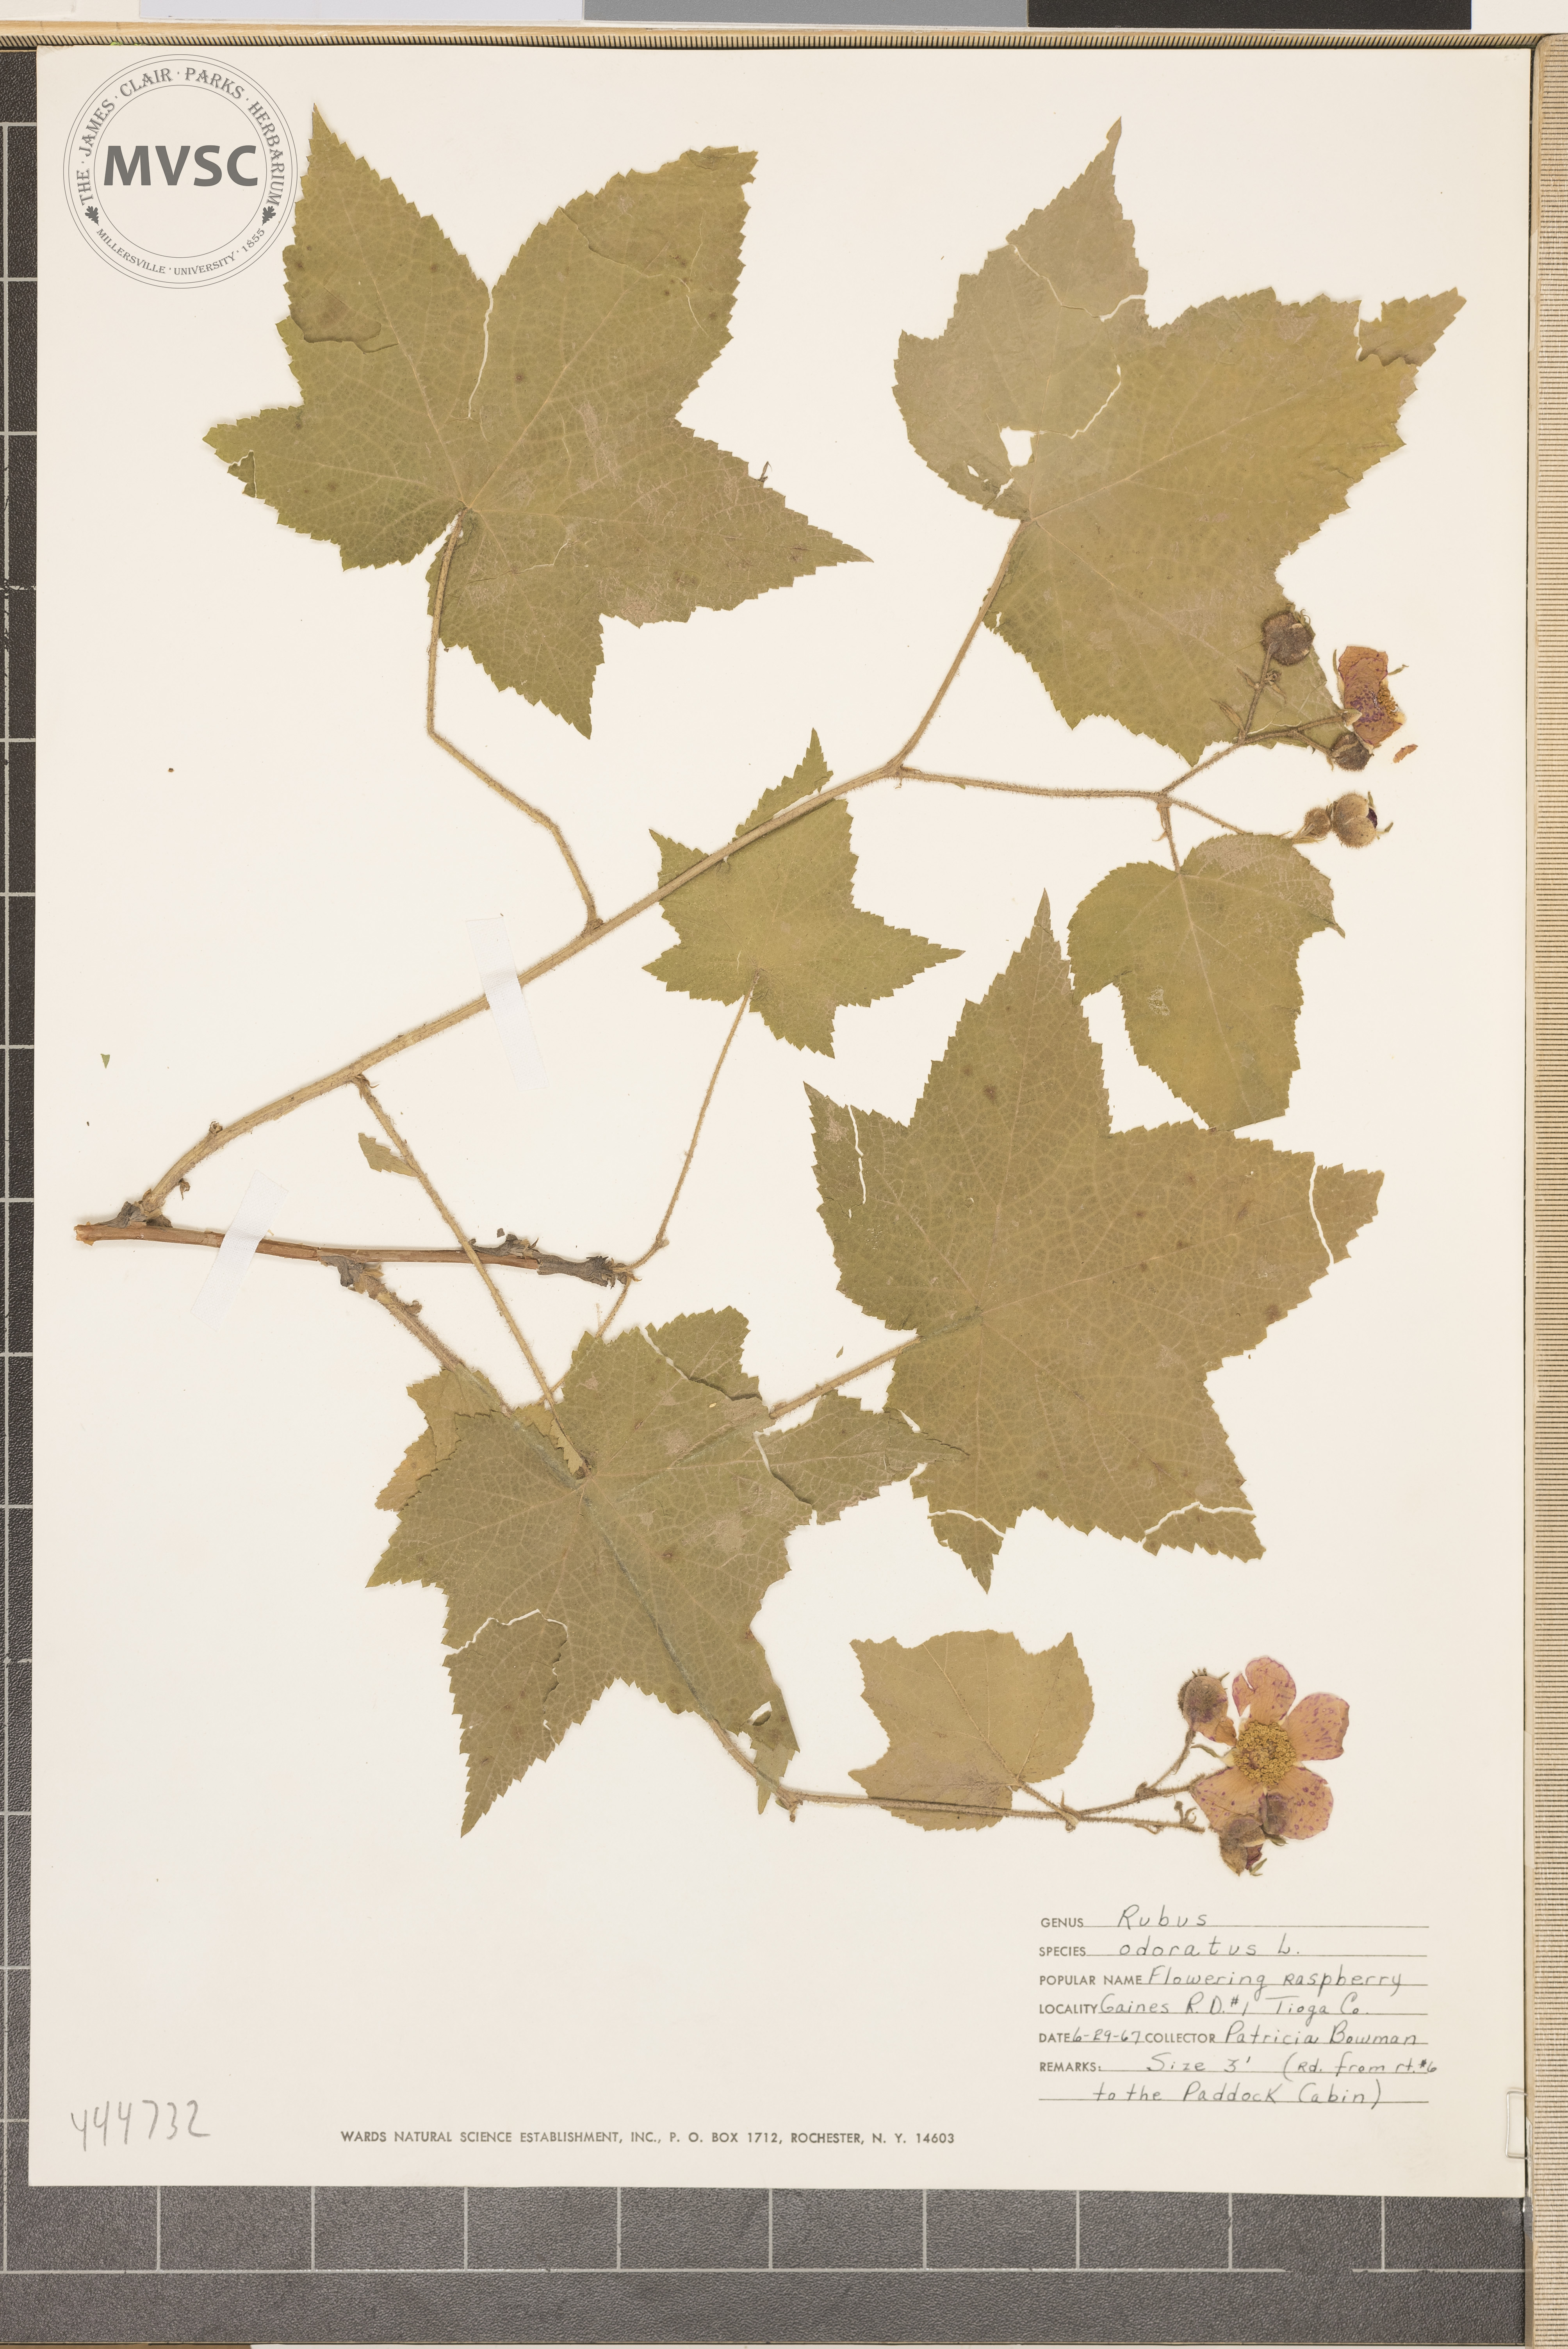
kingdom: Plantae
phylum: Tracheophyta
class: Magnoliopsida
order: Rosales
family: Rosaceae
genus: Rubus
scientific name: Rubus odoratus
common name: Flowering raspberry
